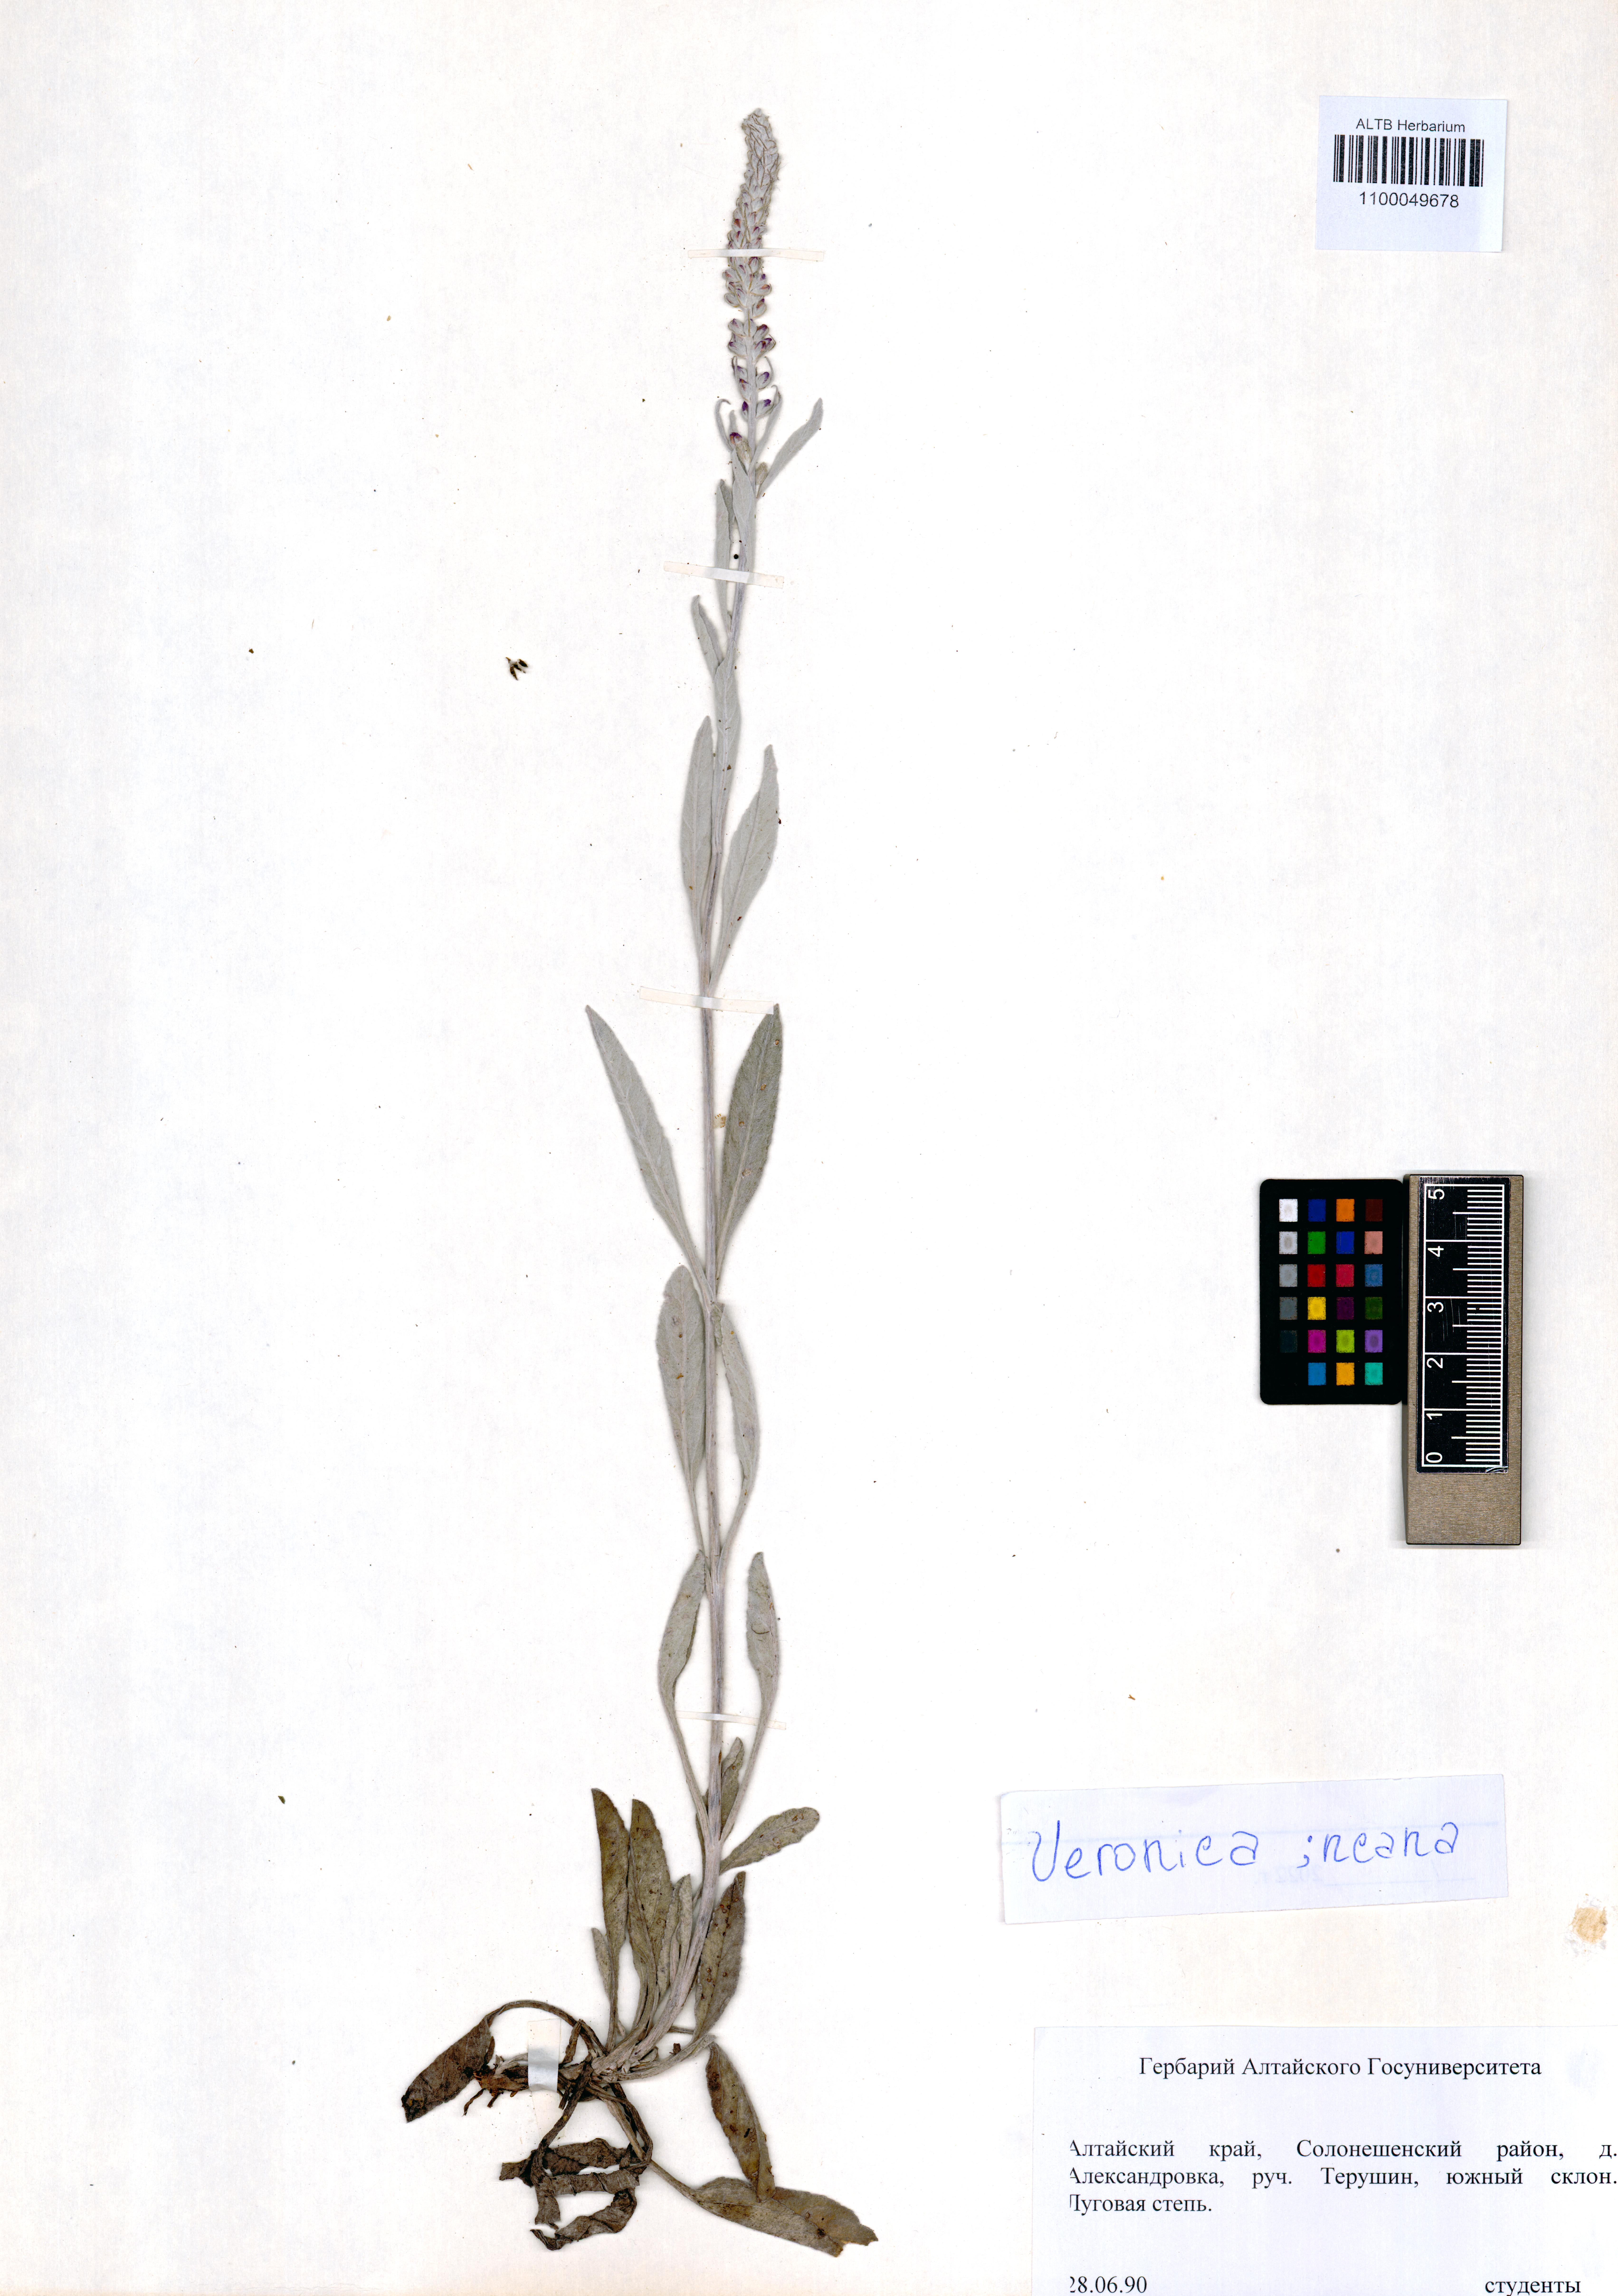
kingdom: Plantae
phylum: Tracheophyta
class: Magnoliopsida
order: Lamiales
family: Plantaginaceae
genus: Veronica
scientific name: Veronica incana
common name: Silver speedwell
